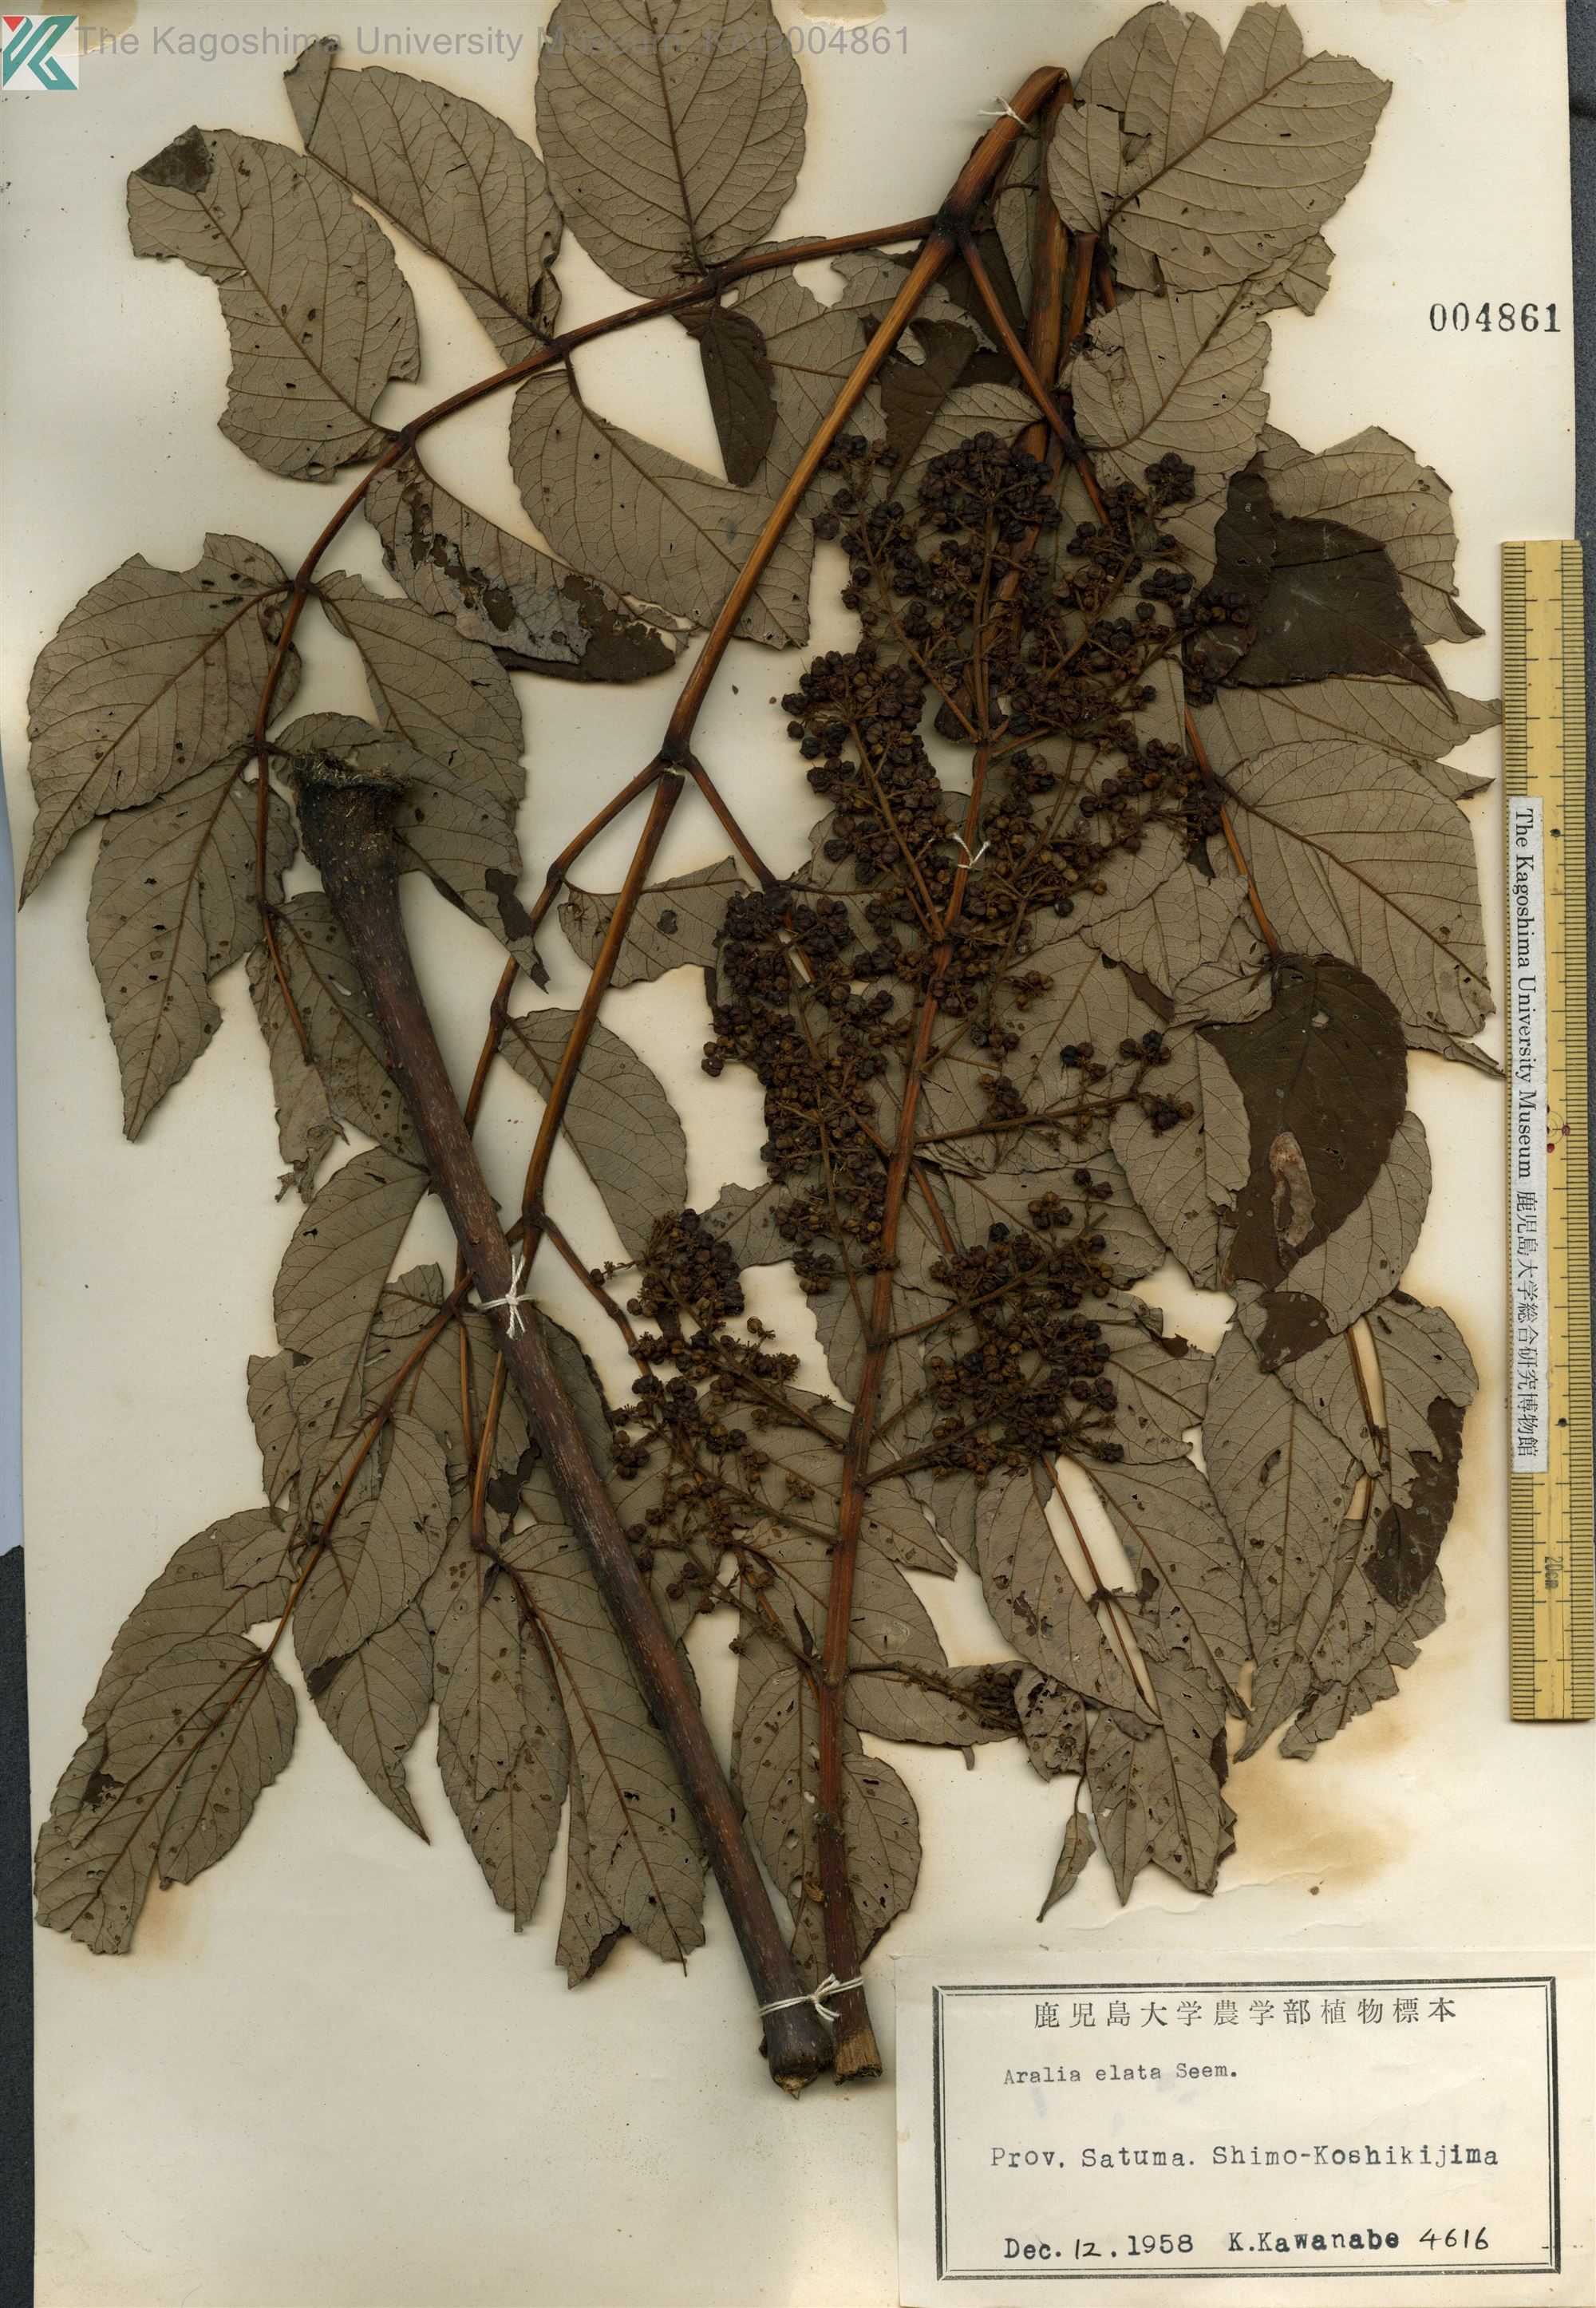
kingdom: Plantae
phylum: Tracheophyta
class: Magnoliopsida
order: Apiales
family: Araliaceae
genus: Aralia
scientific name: Aralia elata
